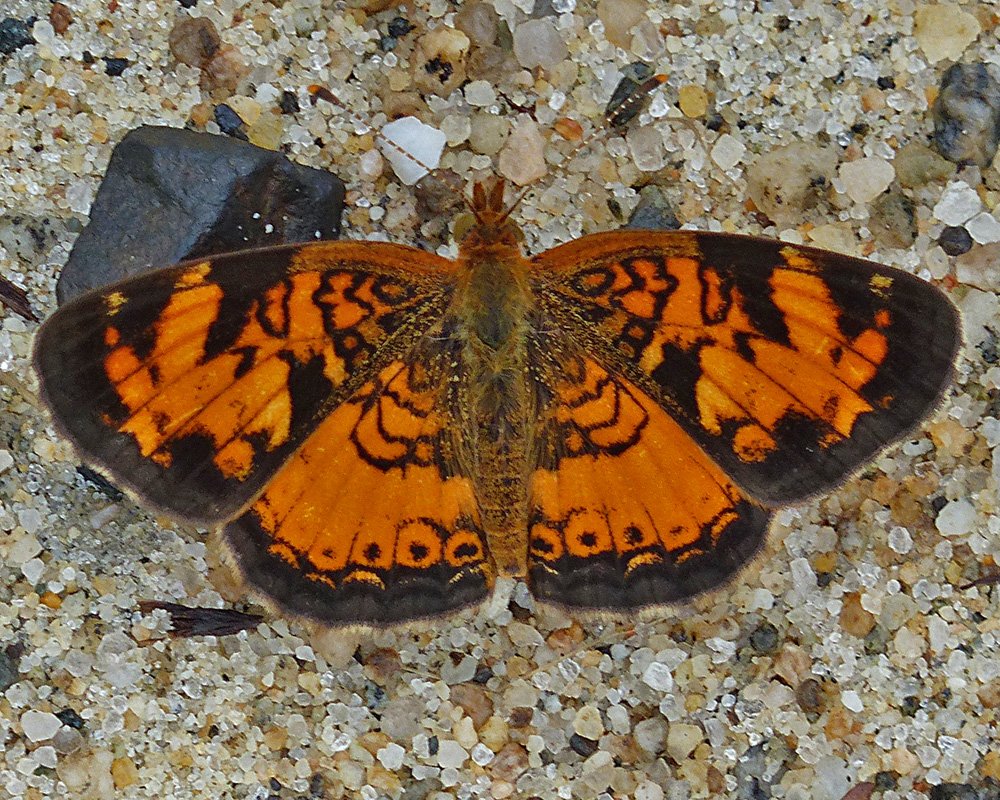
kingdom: Animalia
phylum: Arthropoda
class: Insecta
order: Lepidoptera
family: Nymphalidae
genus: Phyciodes
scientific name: Phyciodes tharos
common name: Northern Crescent
